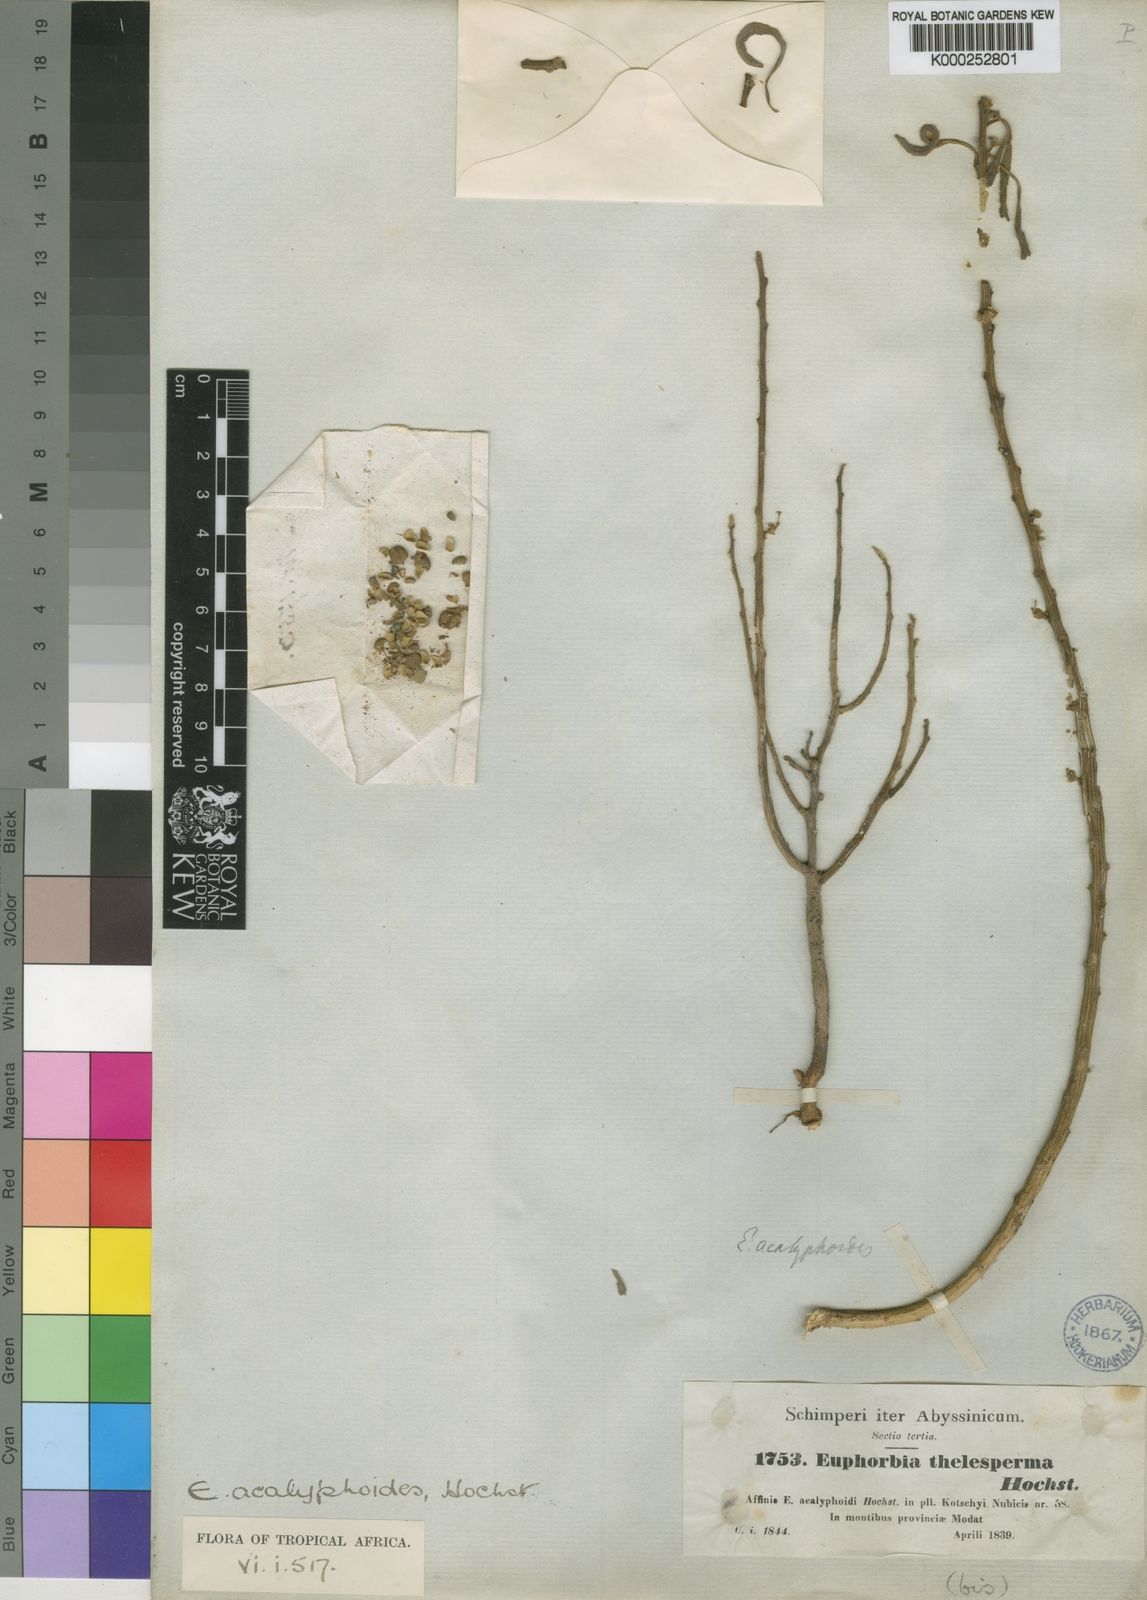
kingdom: Plantae
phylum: Tracheophyta
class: Magnoliopsida
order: Malpighiales
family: Euphorbiaceae
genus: Euphorbia
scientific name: Euphorbia acalyphoides
